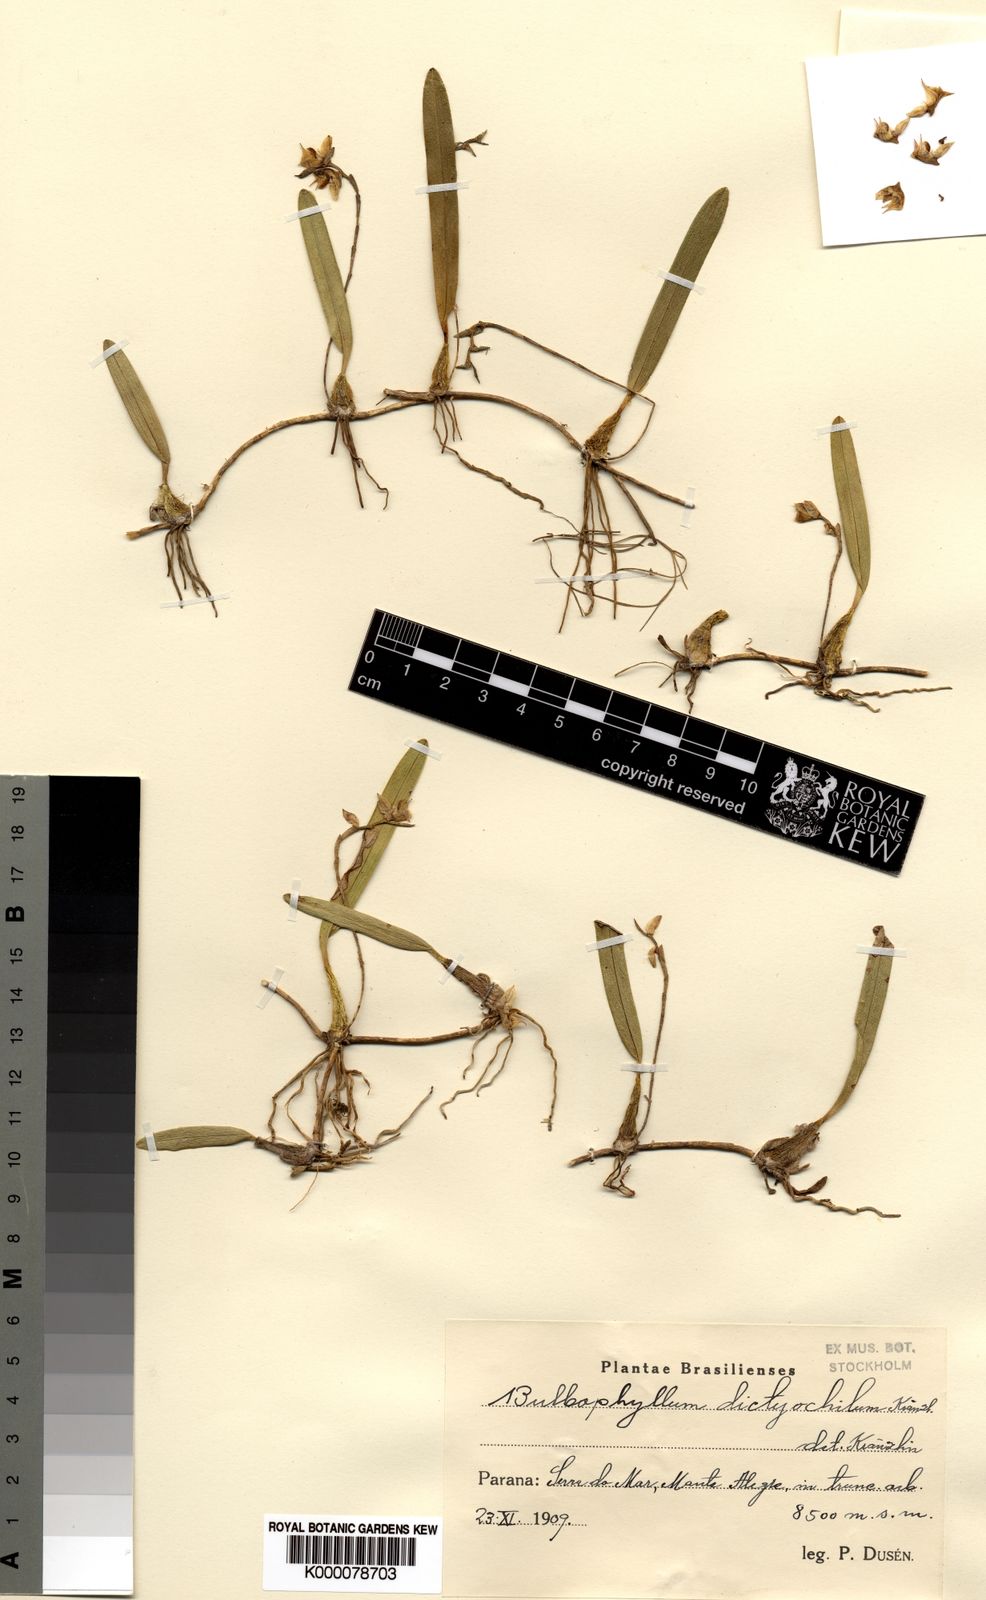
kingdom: Plantae
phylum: Tracheophyta
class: Liliopsida
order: Asparagales
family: Orchidaceae
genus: Bulbophyllum
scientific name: Bulbophyllum
